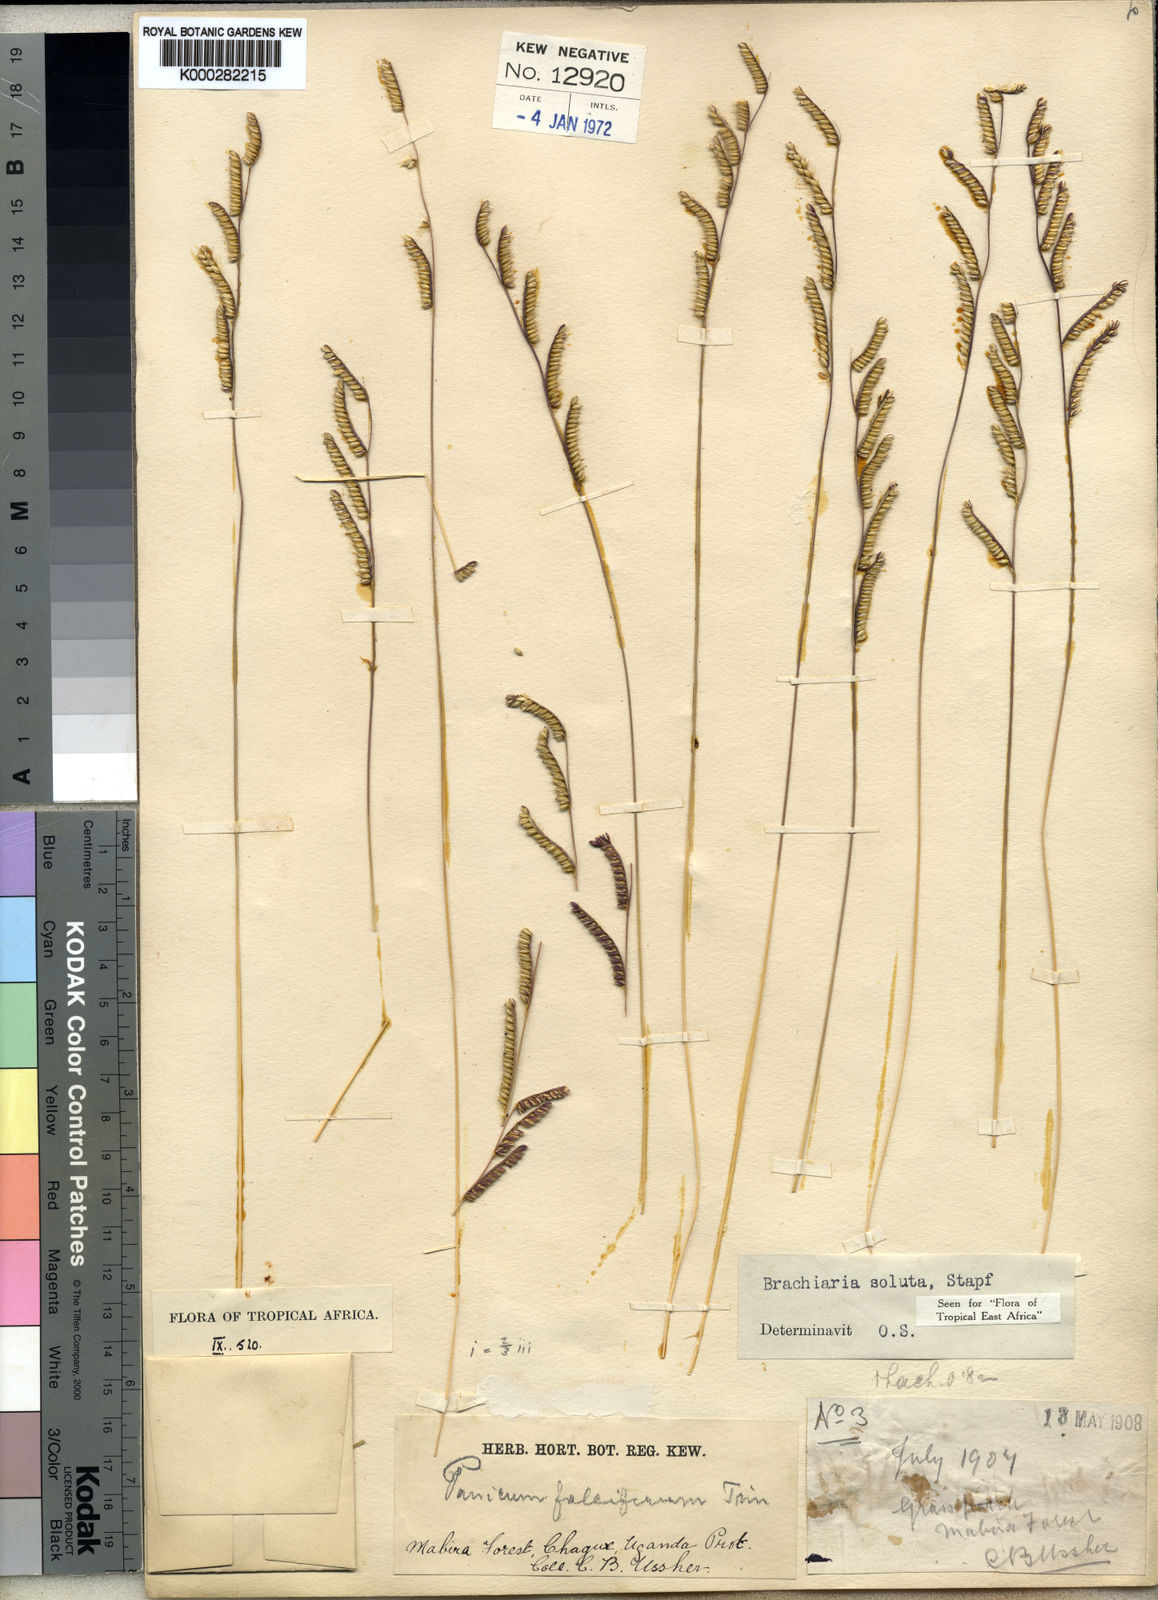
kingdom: Plantae
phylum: Tracheophyta
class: Liliopsida
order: Poales
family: Poaceae
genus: Urochloa
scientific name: Urochloa jubata
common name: Buffalograss
